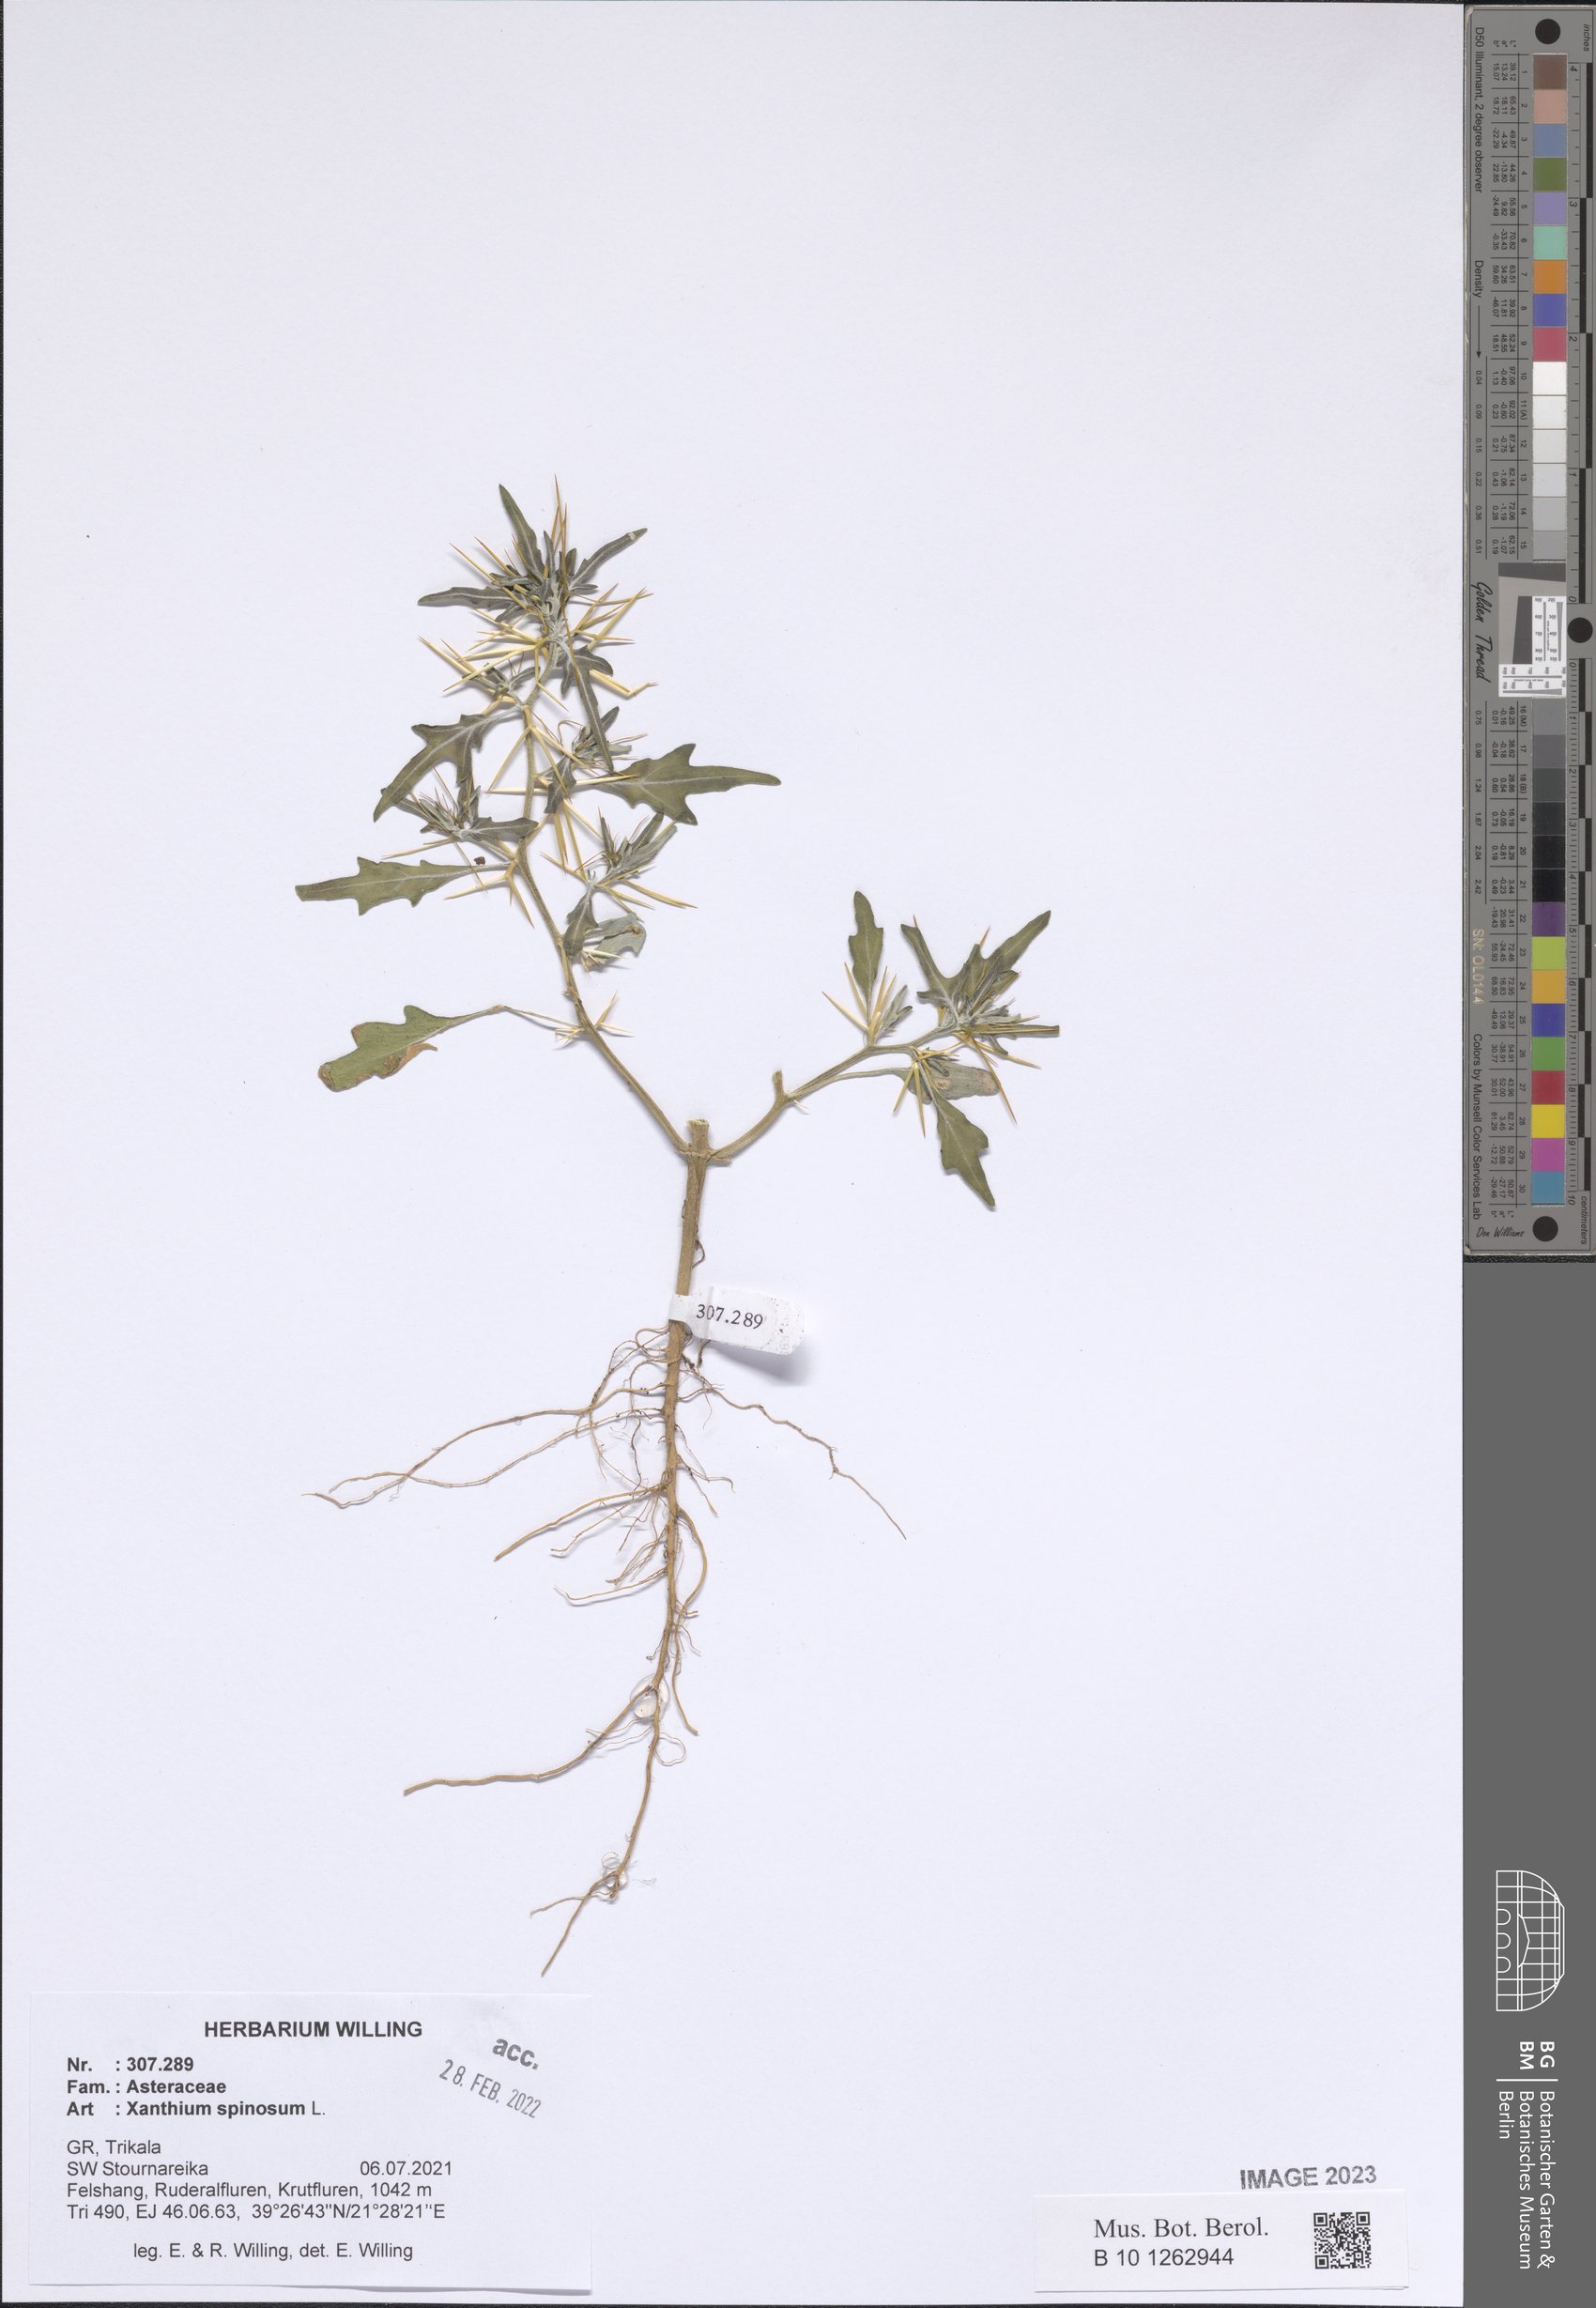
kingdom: Plantae
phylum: Tracheophyta
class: Magnoliopsida
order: Asterales
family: Asteraceae
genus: Xanthium
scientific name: Xanthium spinosum
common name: Spiny cocklebur
